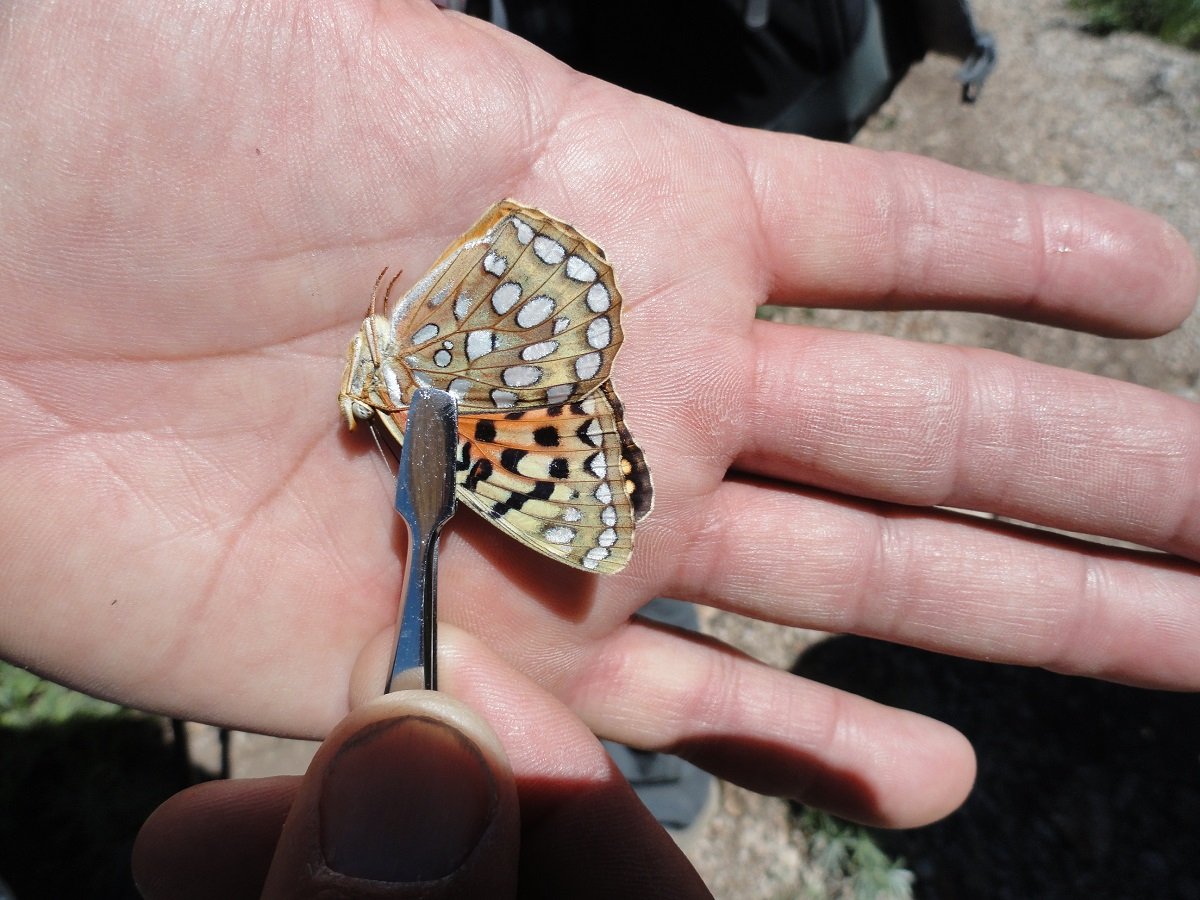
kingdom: Animalia
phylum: Arthropoda
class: Insecta
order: Lepidoptera
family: Nymphalidae
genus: Speyeria
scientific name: Speyeria coronis
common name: Coronis Fritillary
